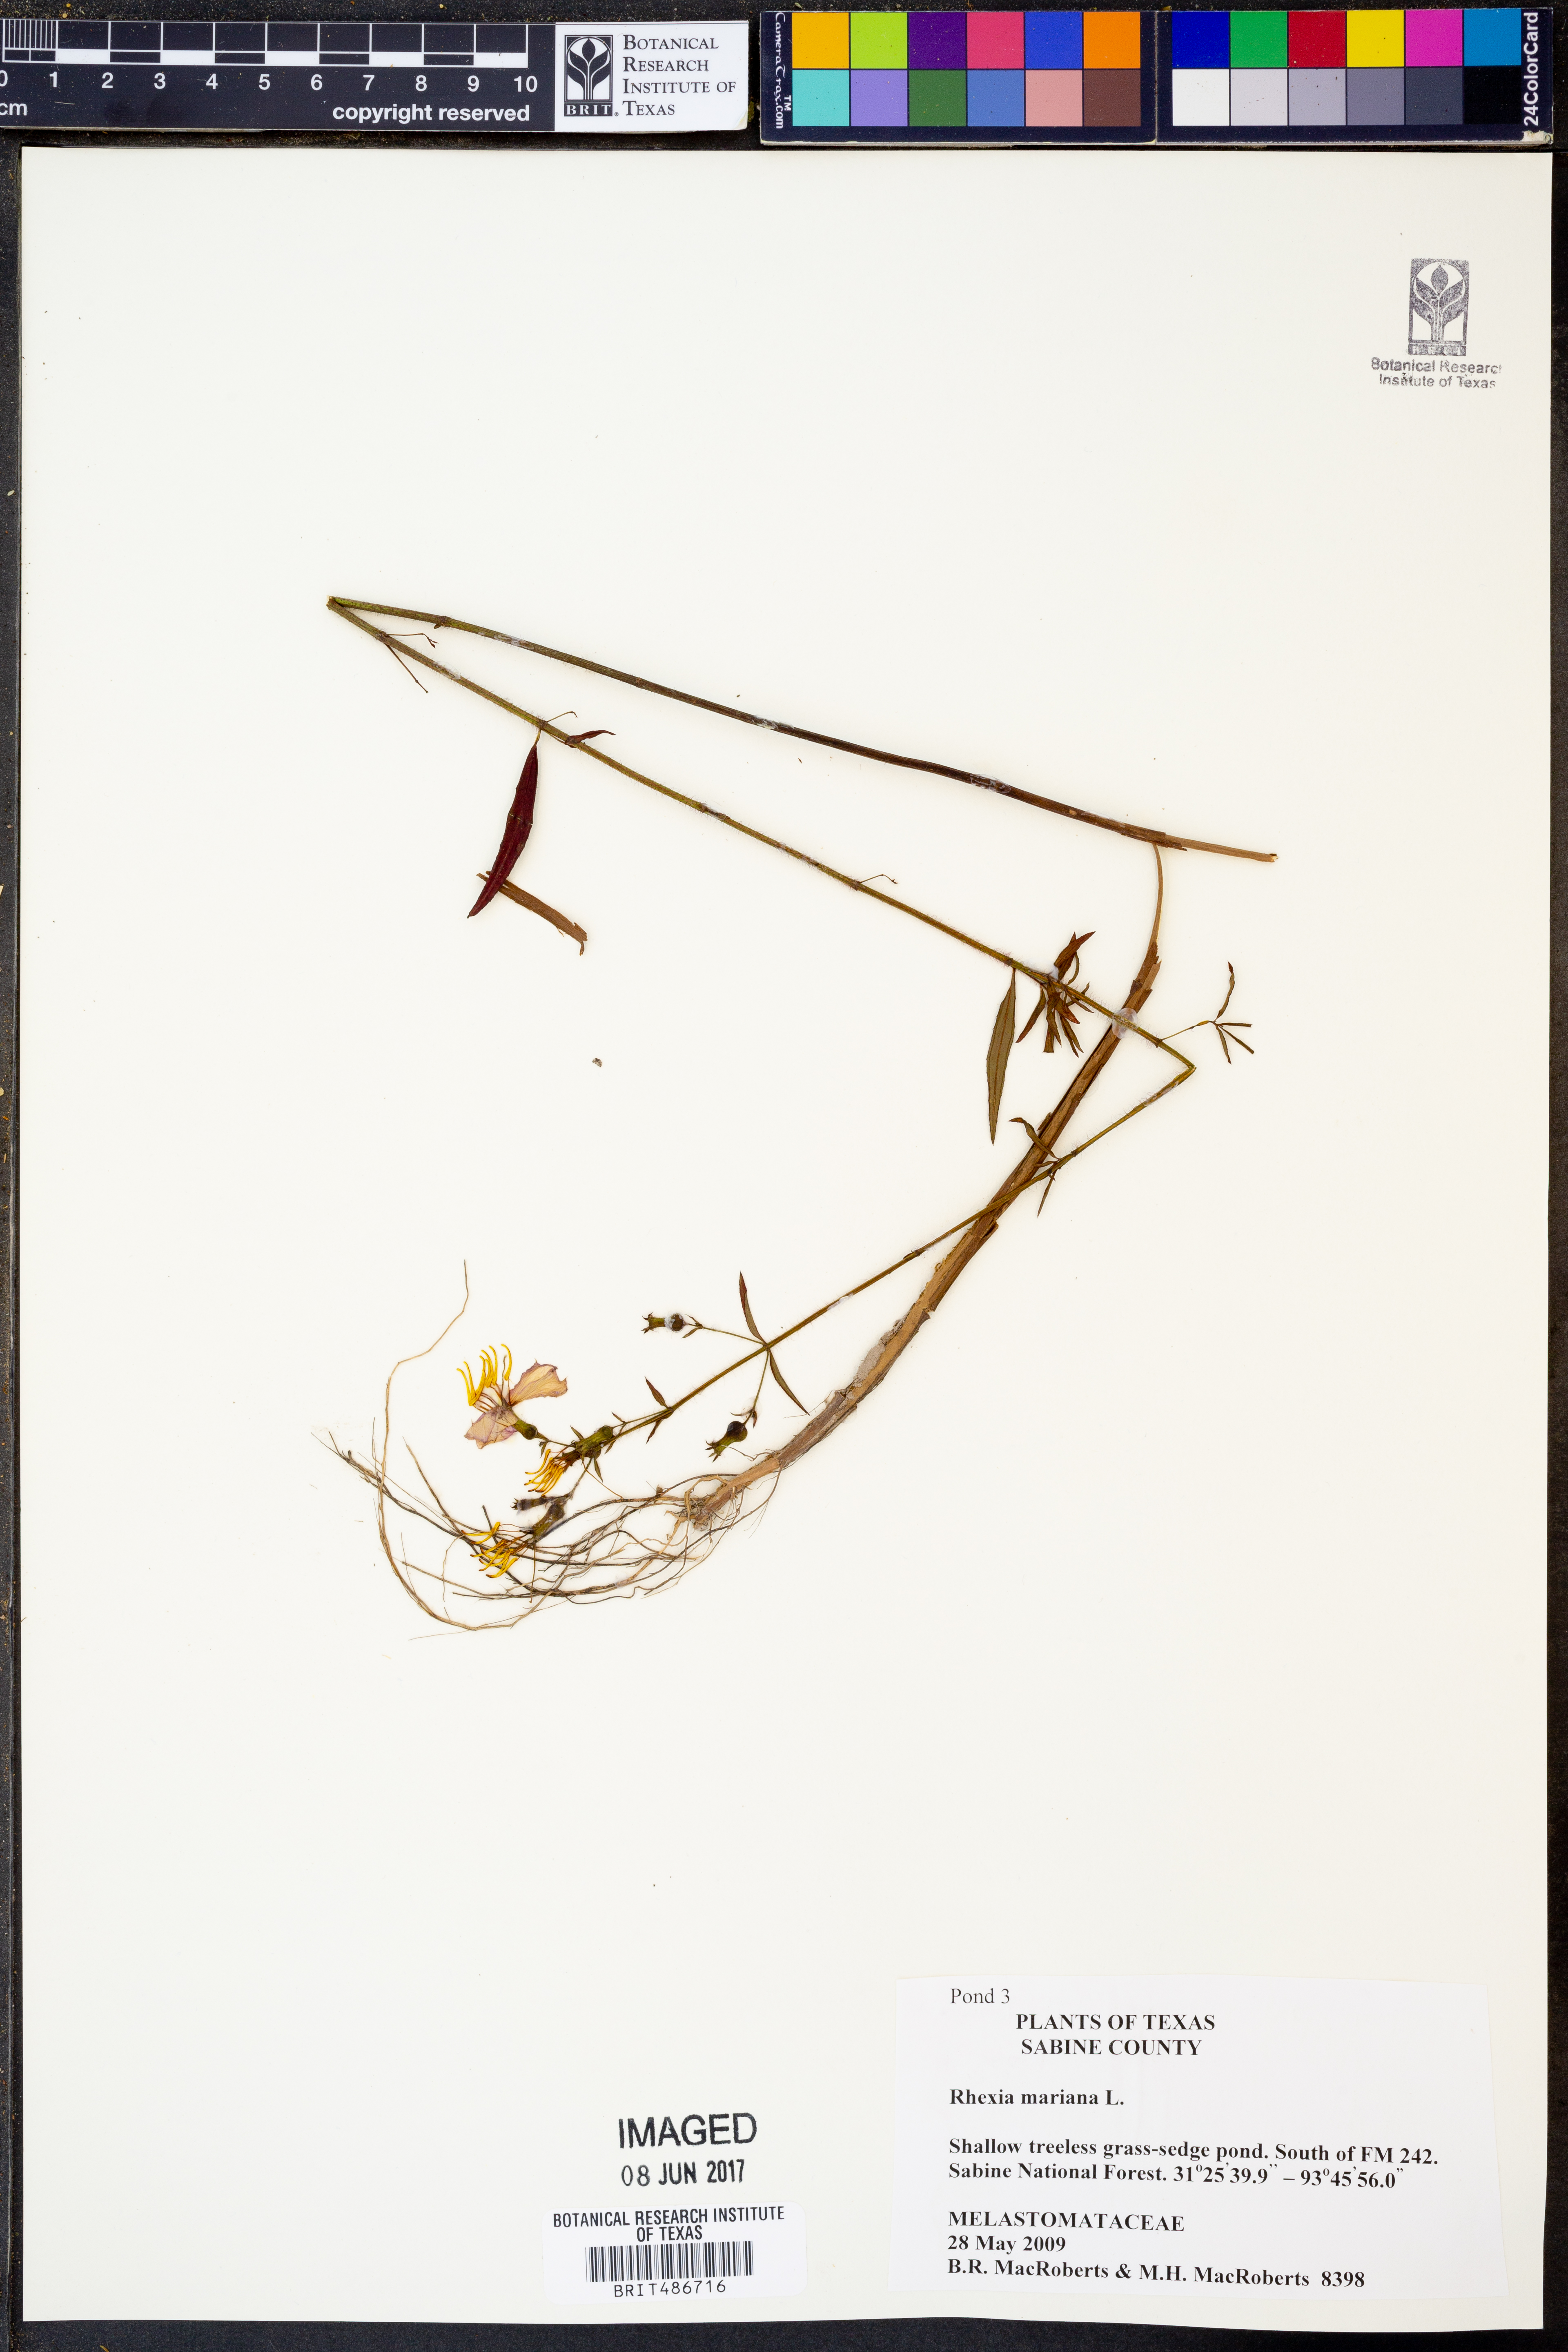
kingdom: Plantae
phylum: Tracheophyta
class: Magnoliopsida
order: Myrtales
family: Melastomataceae
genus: Rhexia
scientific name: Rhexia mariana
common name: Dull meadow-pitcher
